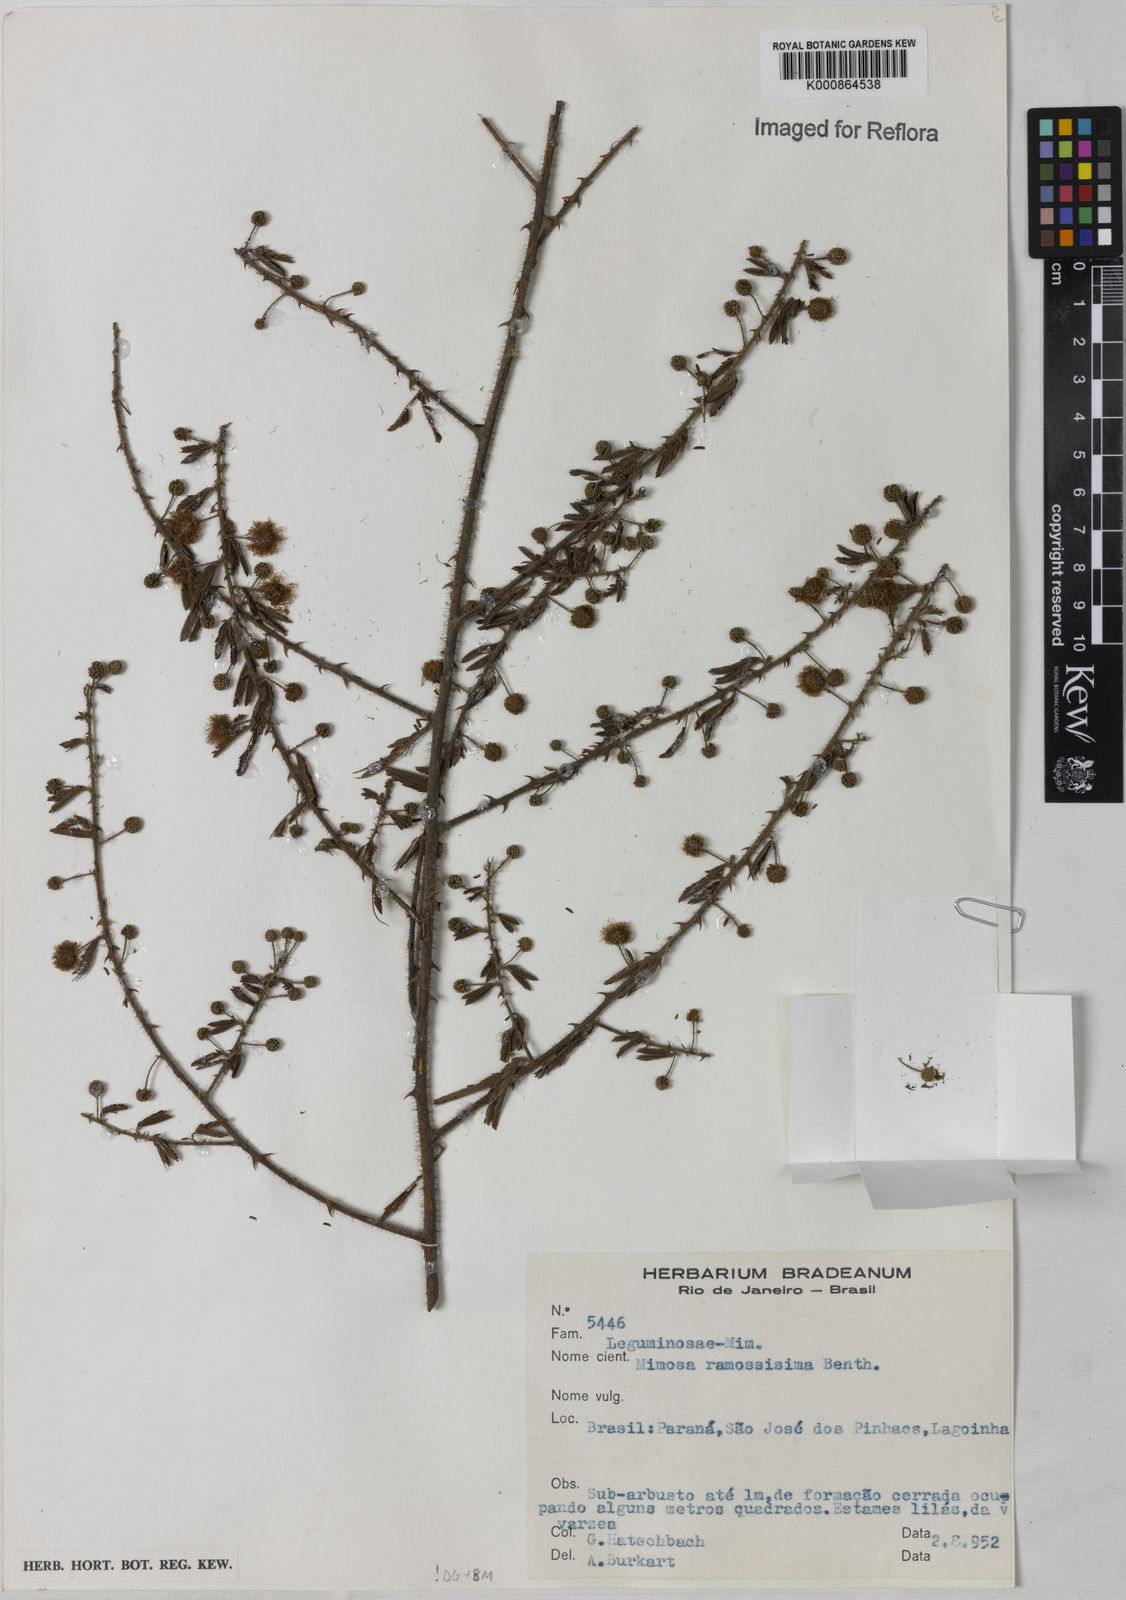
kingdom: Plantae
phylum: Tracheophyta
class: Magnoliopsida
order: Fabales
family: Fabaceae
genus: Mimosa
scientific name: Mimosa ramosissima
